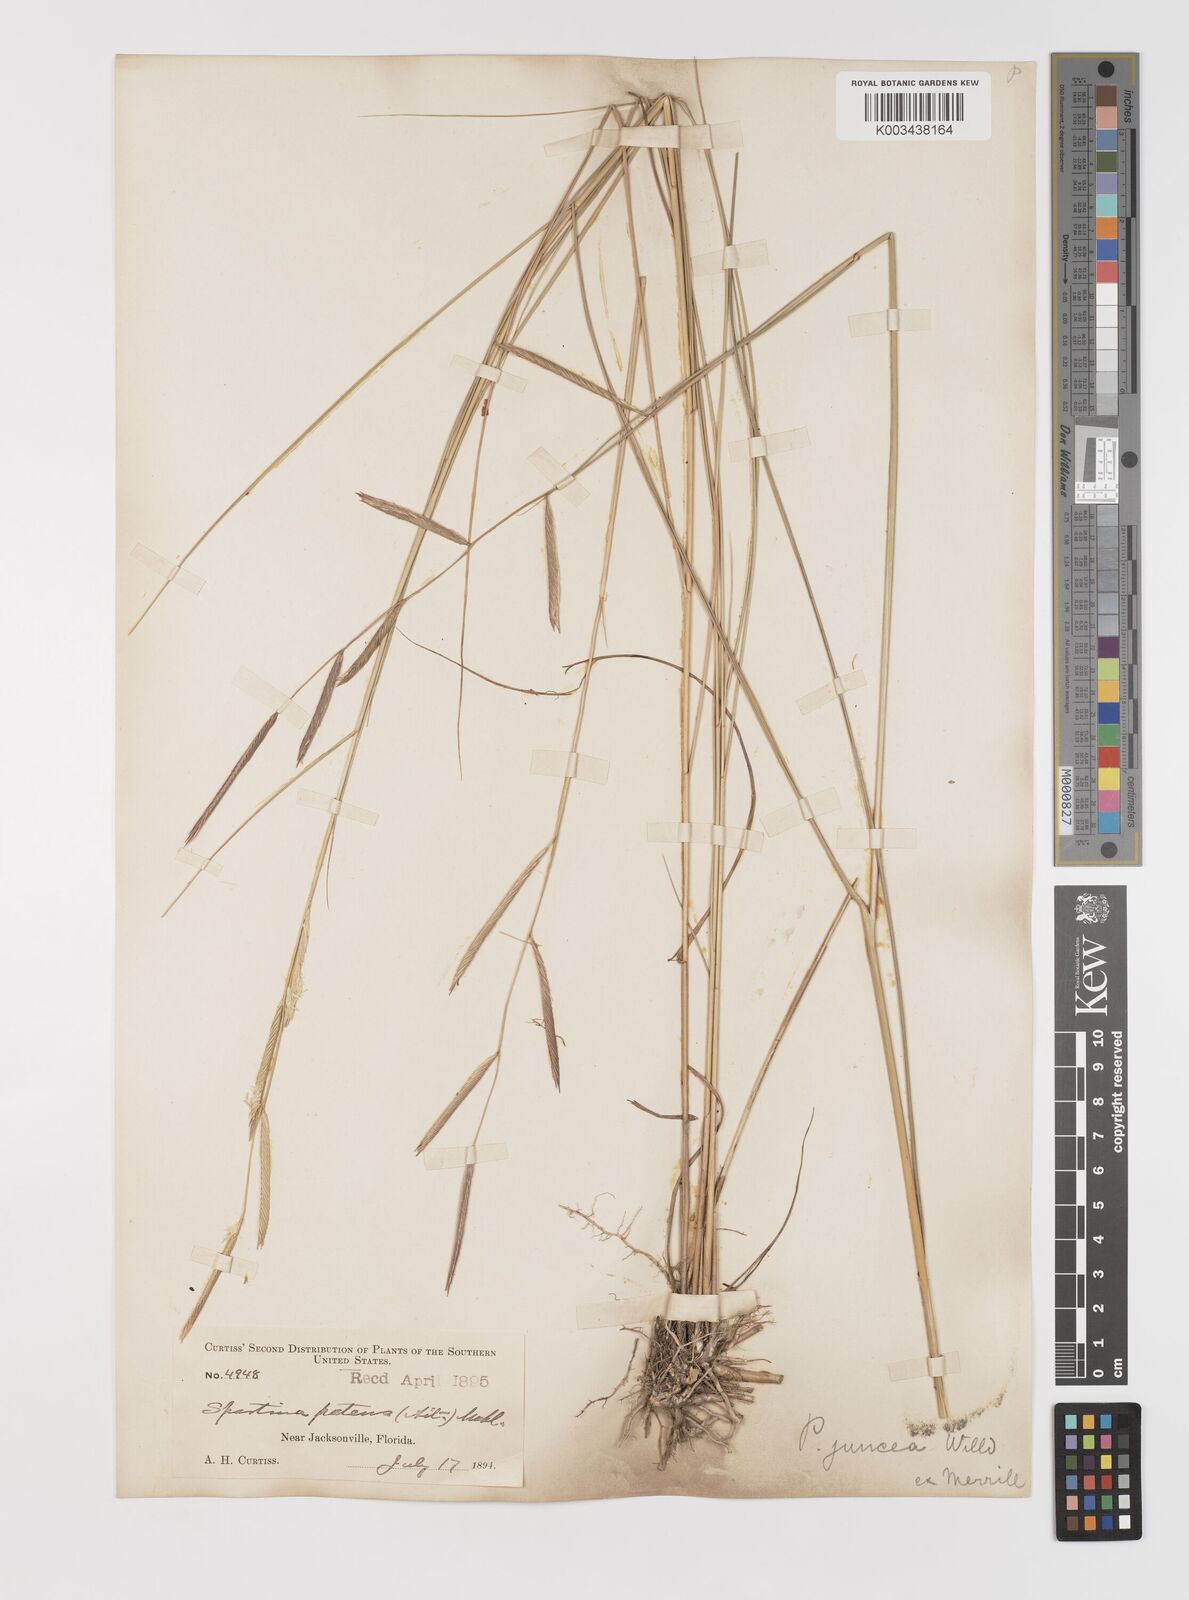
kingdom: Plantae
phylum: Tracheophyta
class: Liliopsida
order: Poales
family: Poaceae
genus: Sporobolus
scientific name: Sporobolus pumilus
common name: Highwater grass
